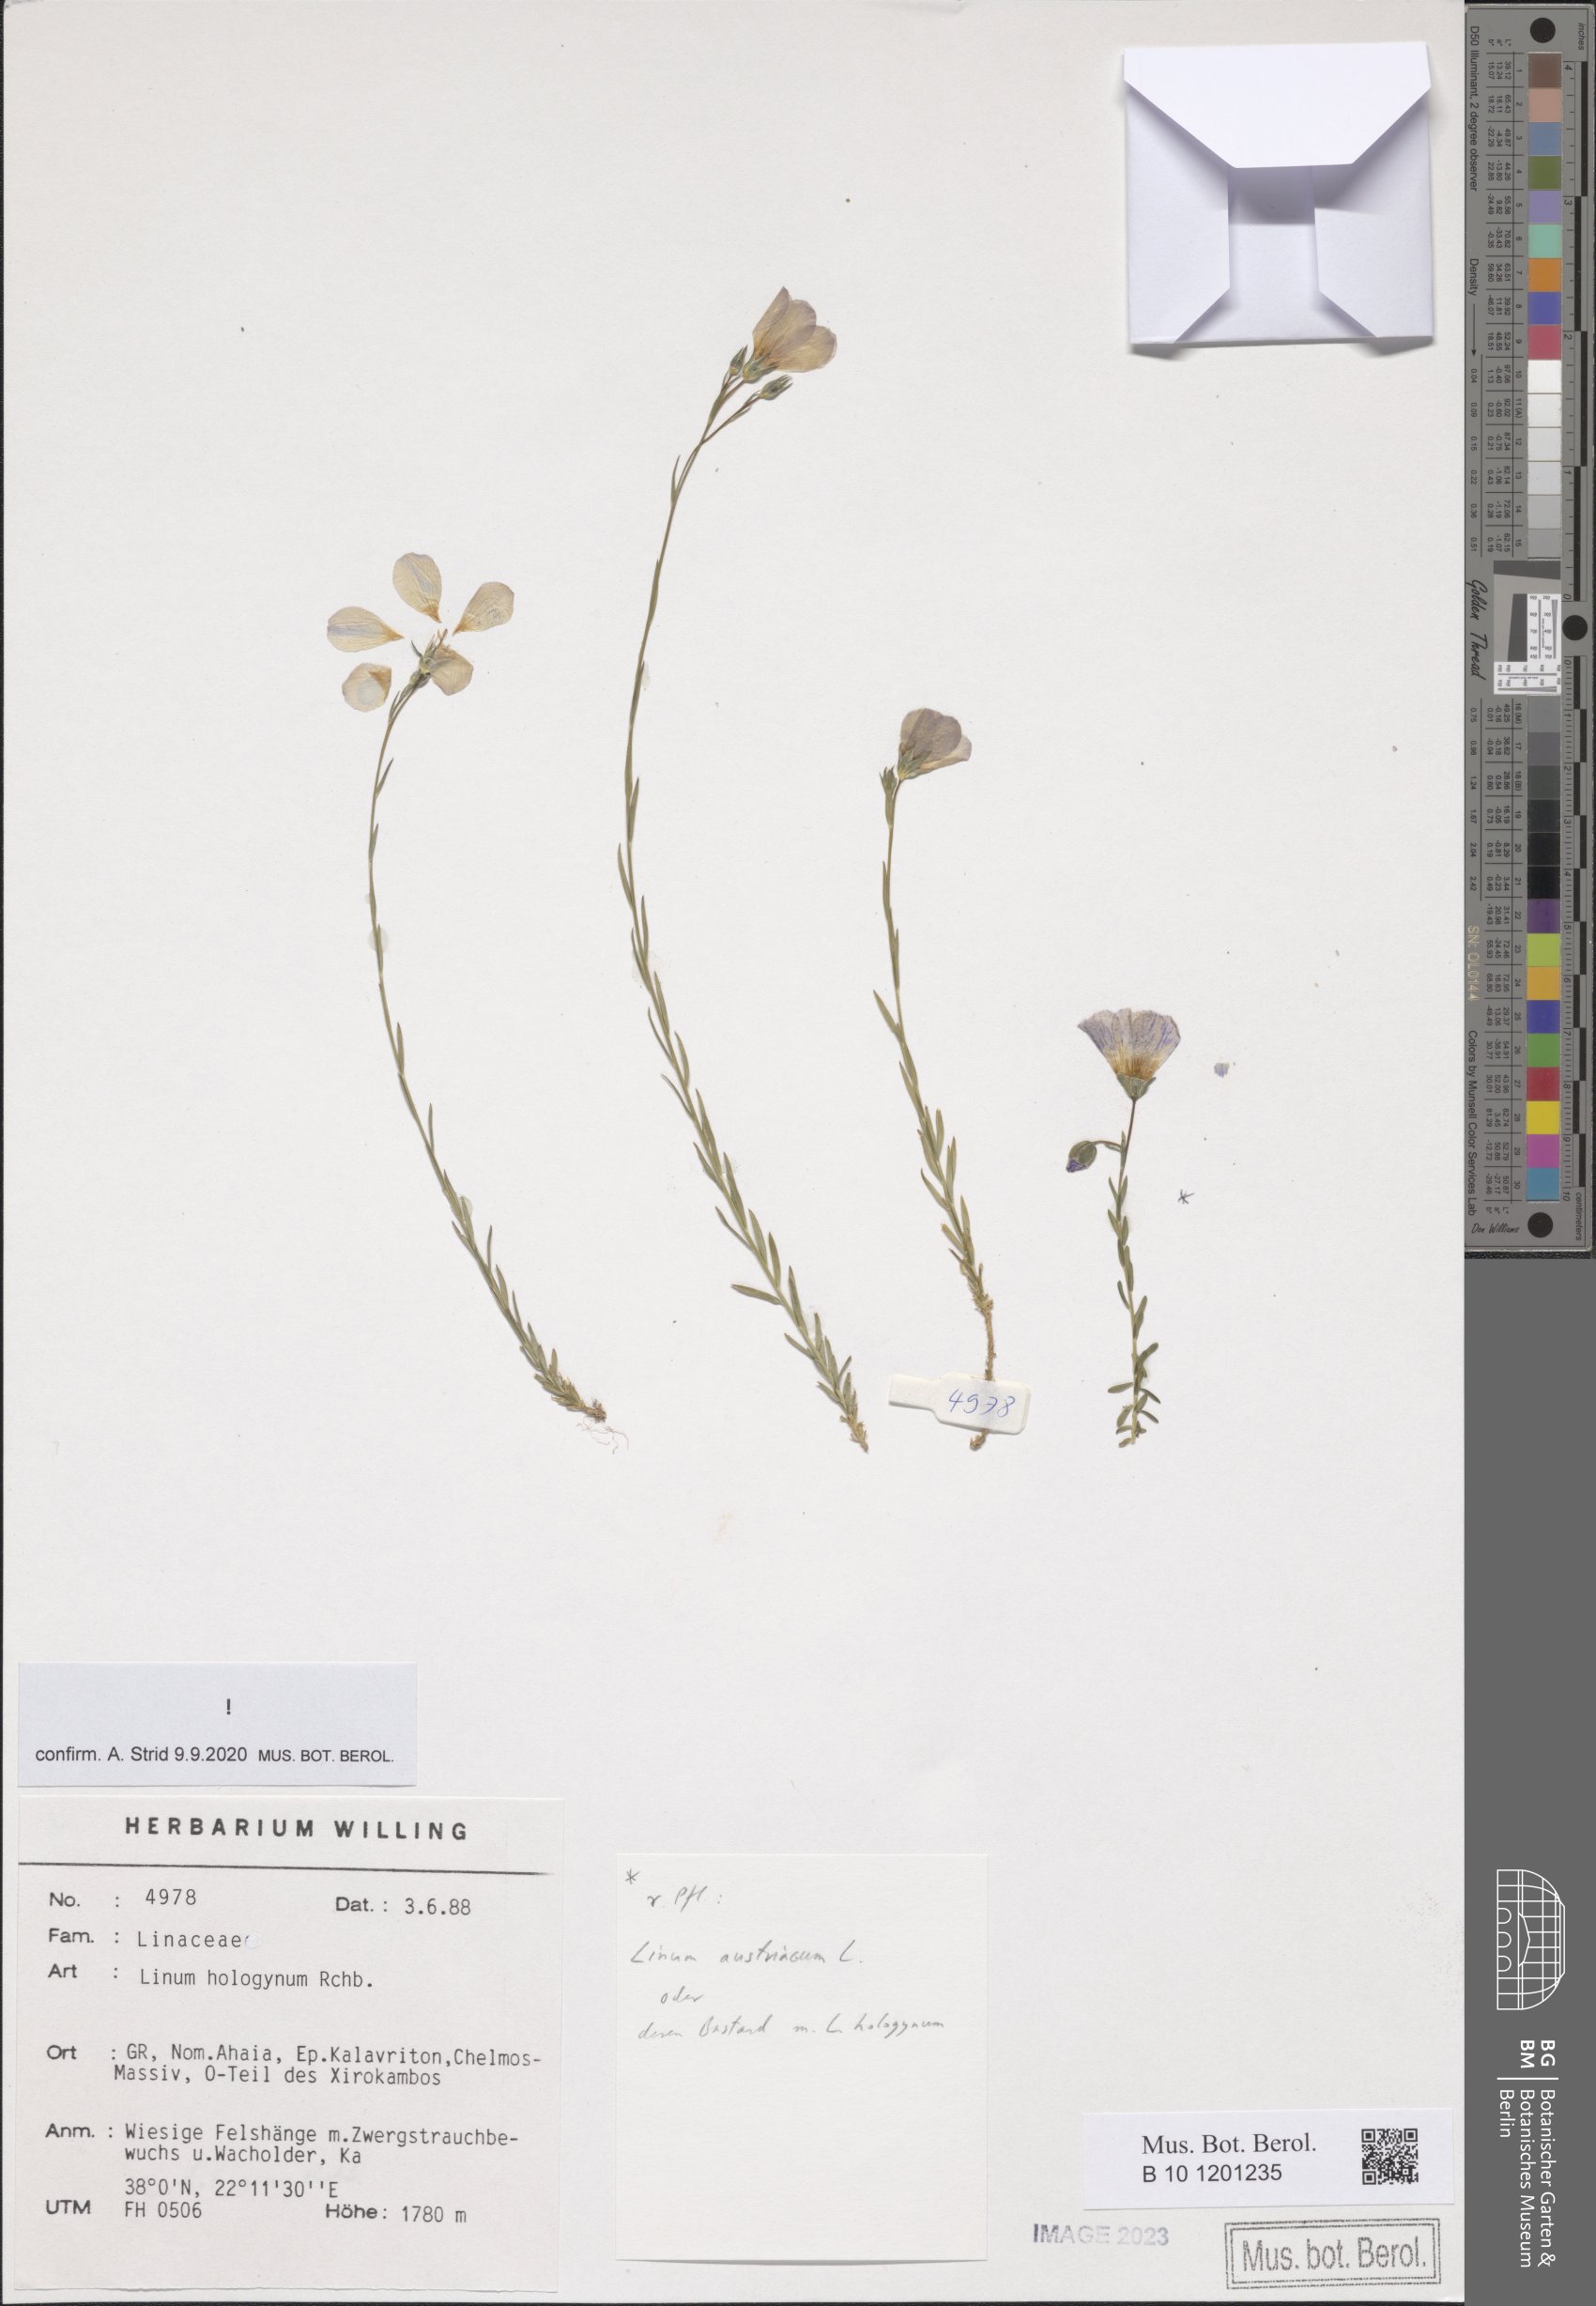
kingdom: Plantae
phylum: Tracheophyta
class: Magnoliopsida
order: Malpighiales
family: Linaceae
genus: Linum
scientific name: Linum hologynum
